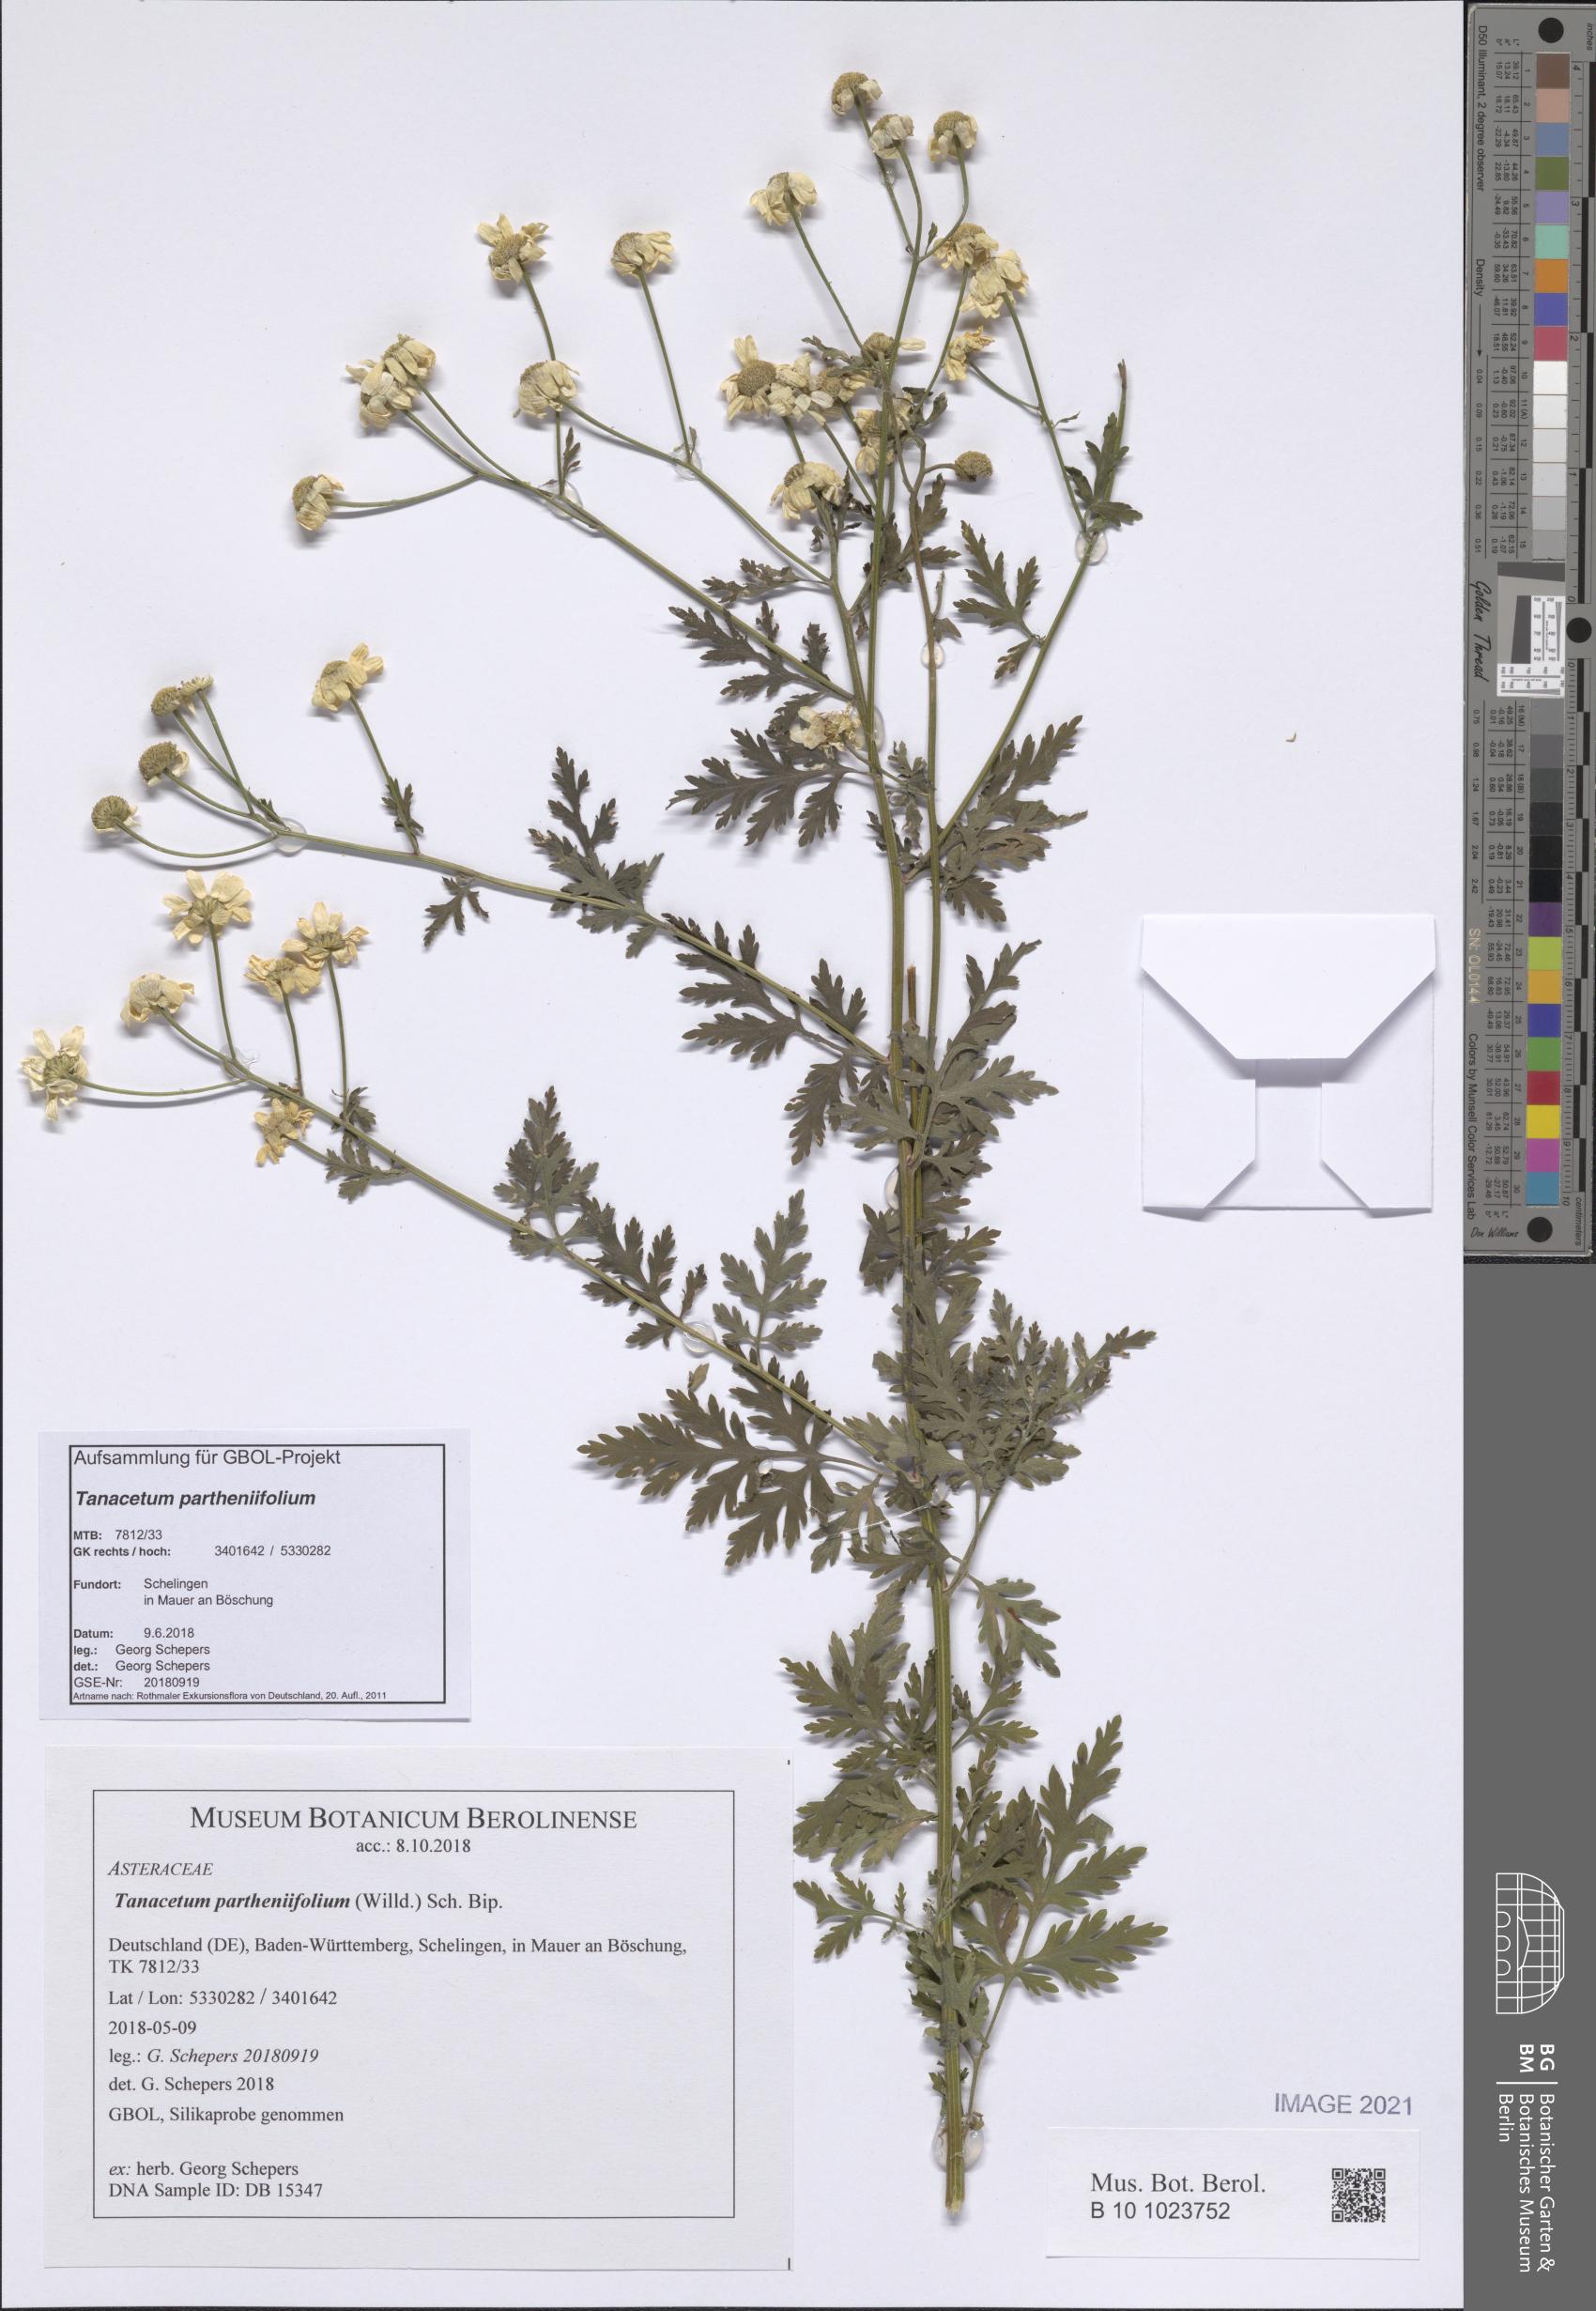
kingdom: Plantae
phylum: Tracheophyta
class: Magnoliopsida
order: Asterales
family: Asteraceae
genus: Tanacetum
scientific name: Tanacetum partheniifolium
